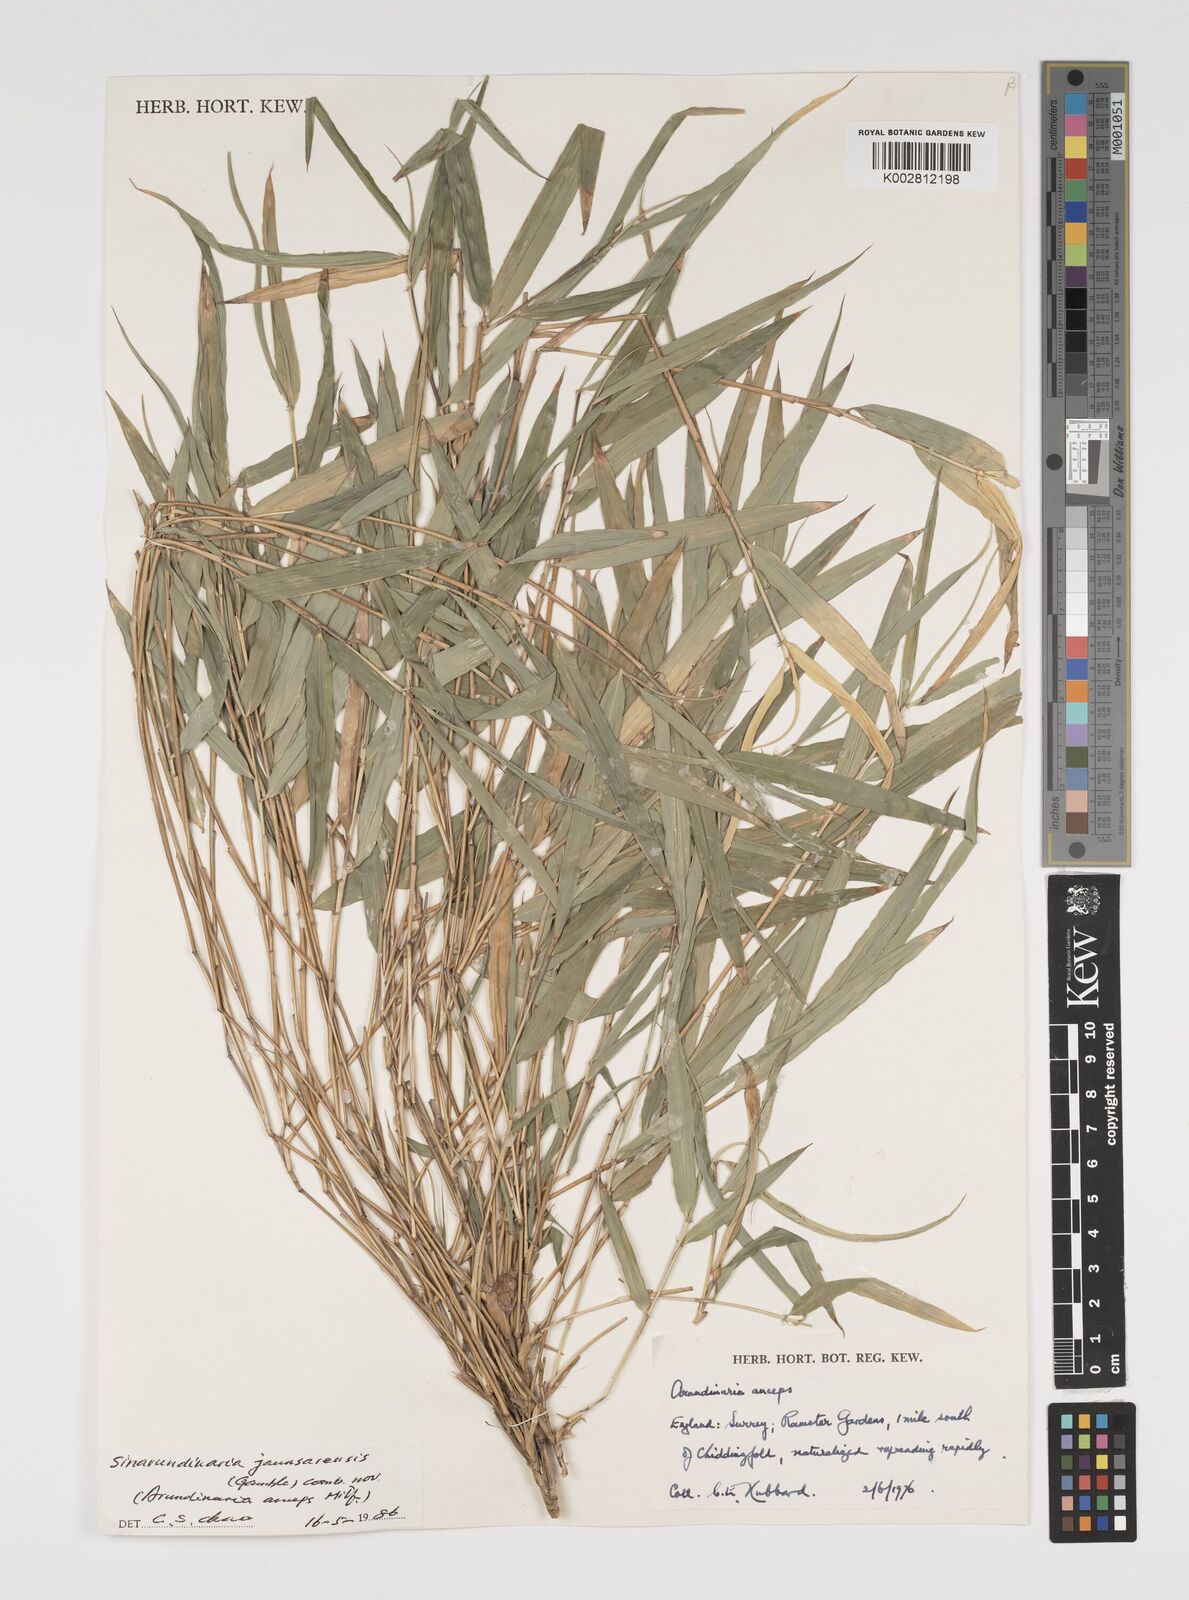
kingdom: Plantae
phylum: Tracheophyta
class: Liliopsida
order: Poales
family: Poaceae
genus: Yushania
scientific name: Yushania anceps
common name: Indian fountain-bamboo
